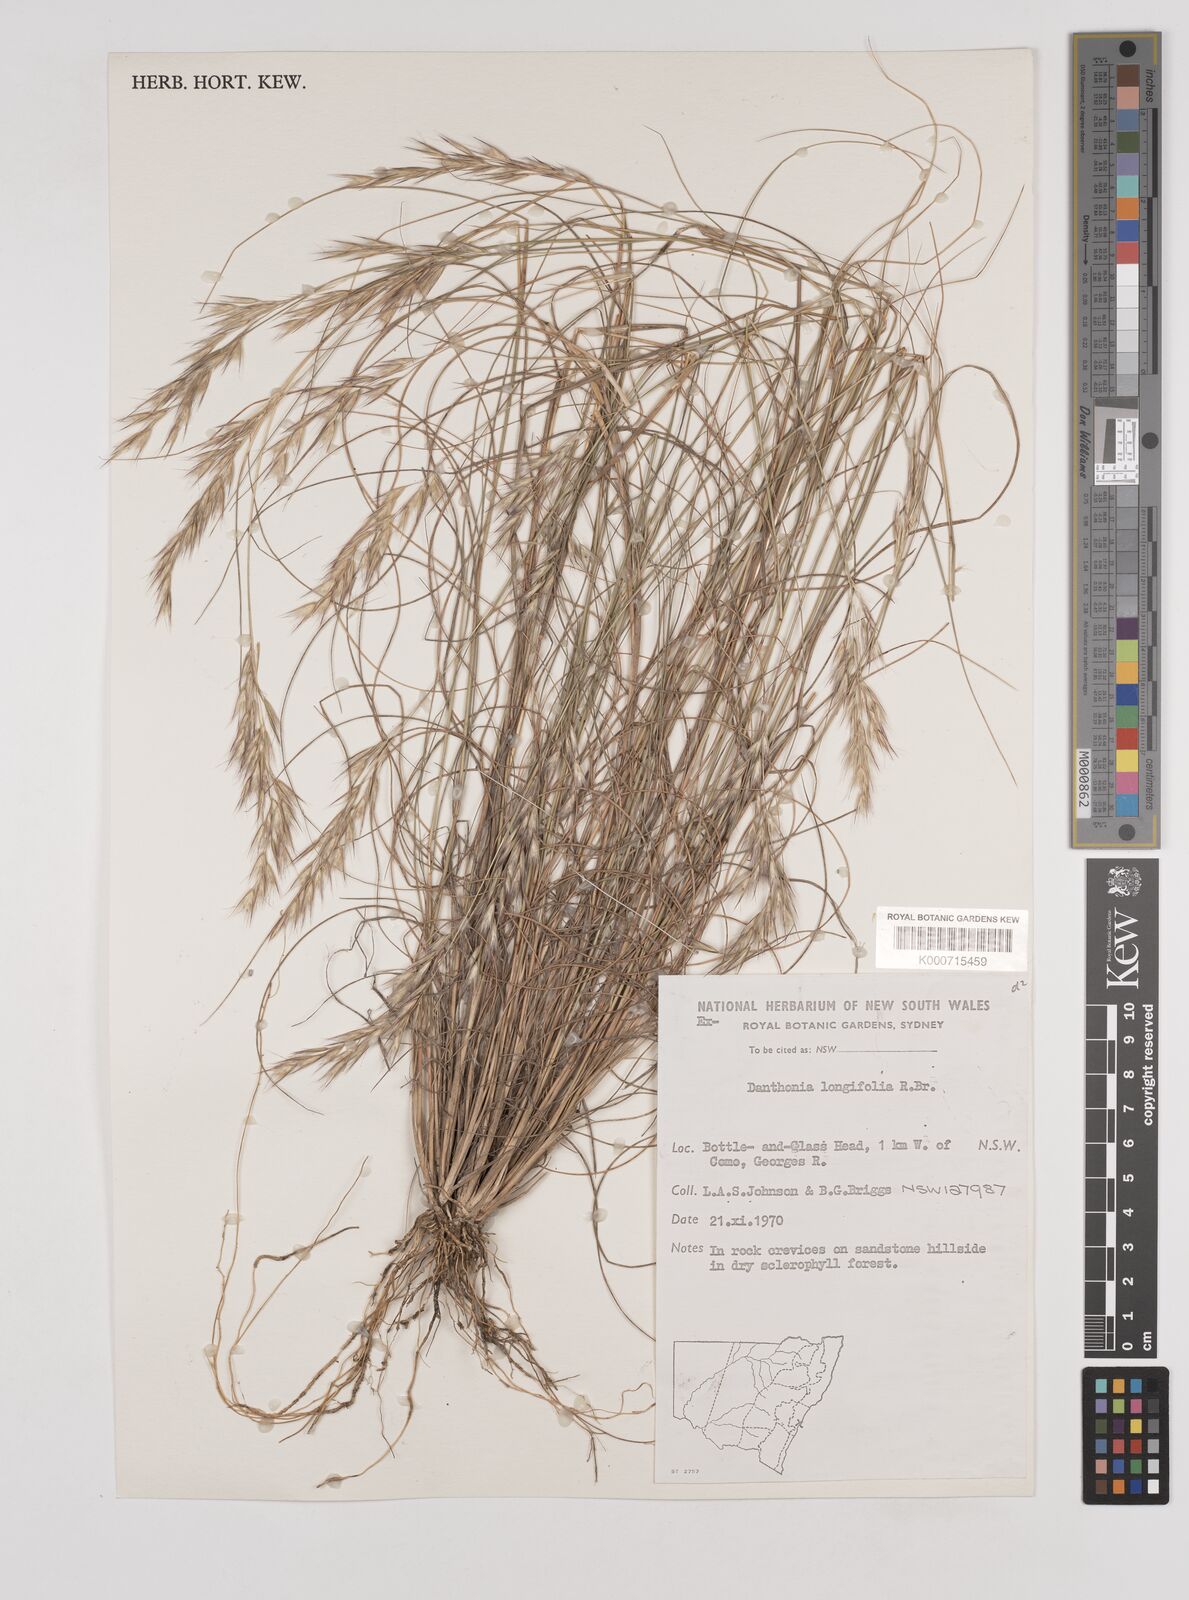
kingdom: Plantae
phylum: Tracheophyta
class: Liliopsida
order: Poales
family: Poaceae
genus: Rytidosperma
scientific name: Rytidosperma longifolium
